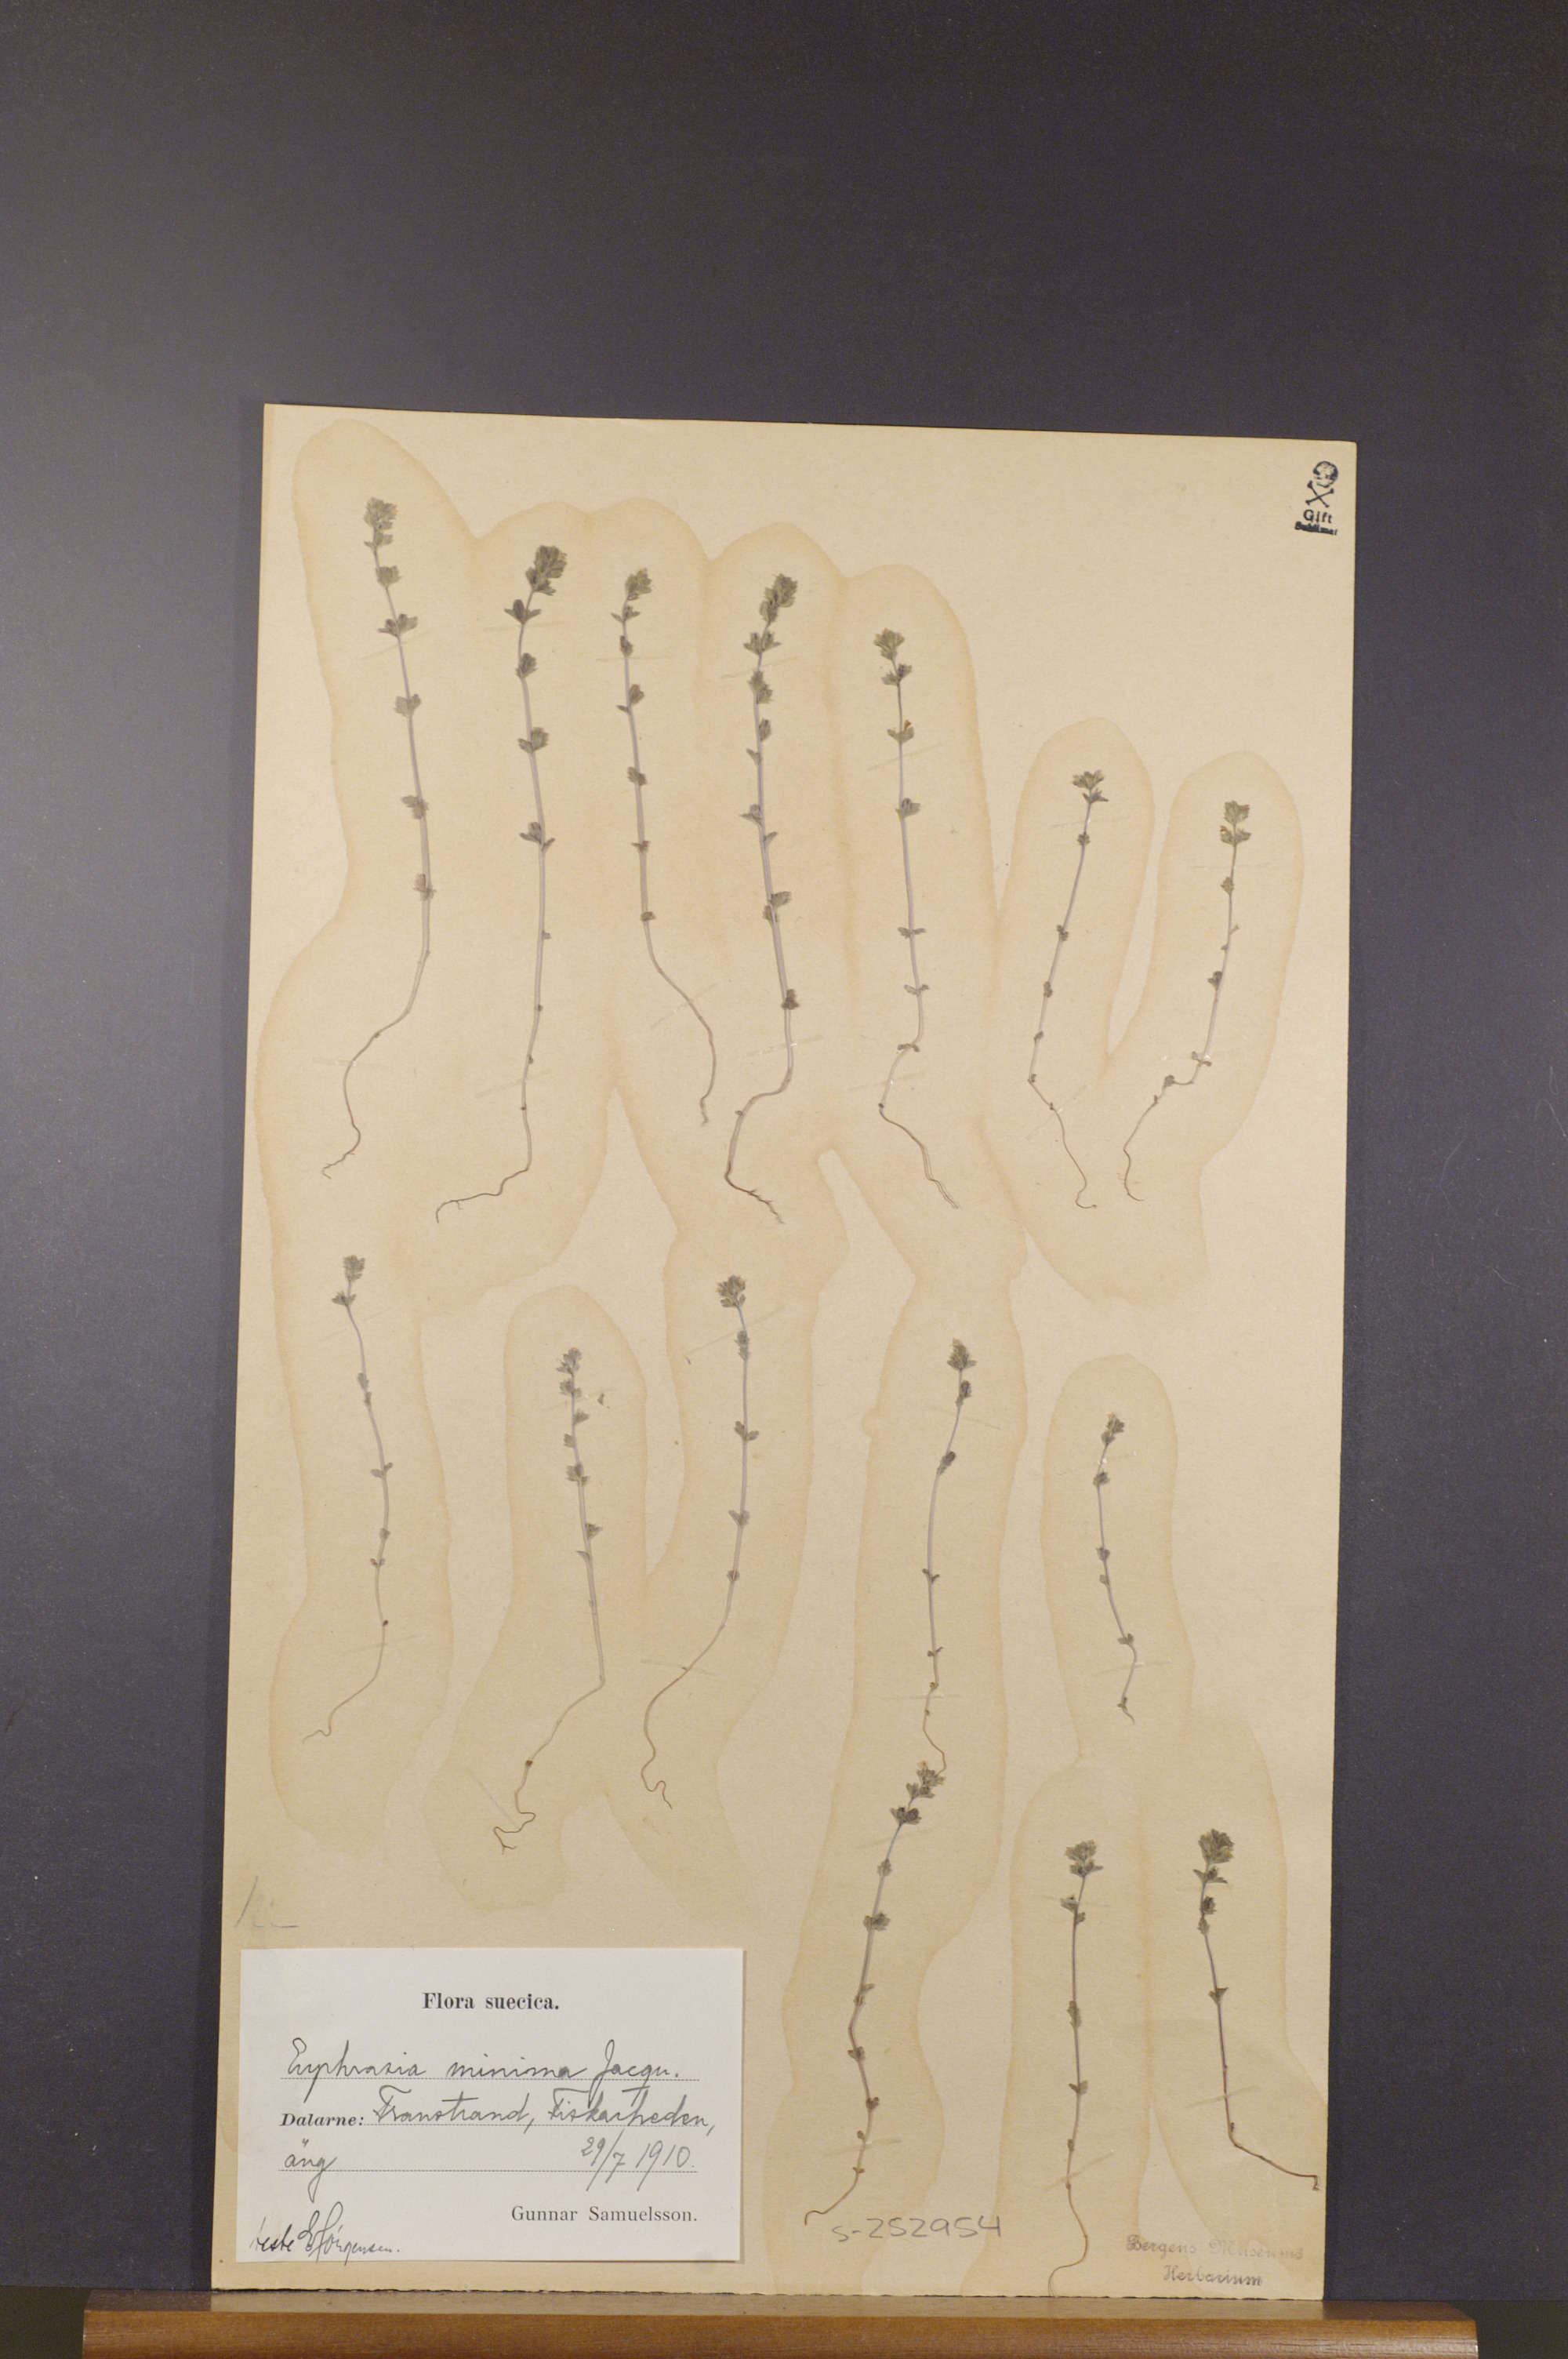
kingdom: Plantae
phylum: Tracheophyta
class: Magnoliopsida
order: Lamiales
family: Orobanchaceae
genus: Euphrasia
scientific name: Euphrasia minima
